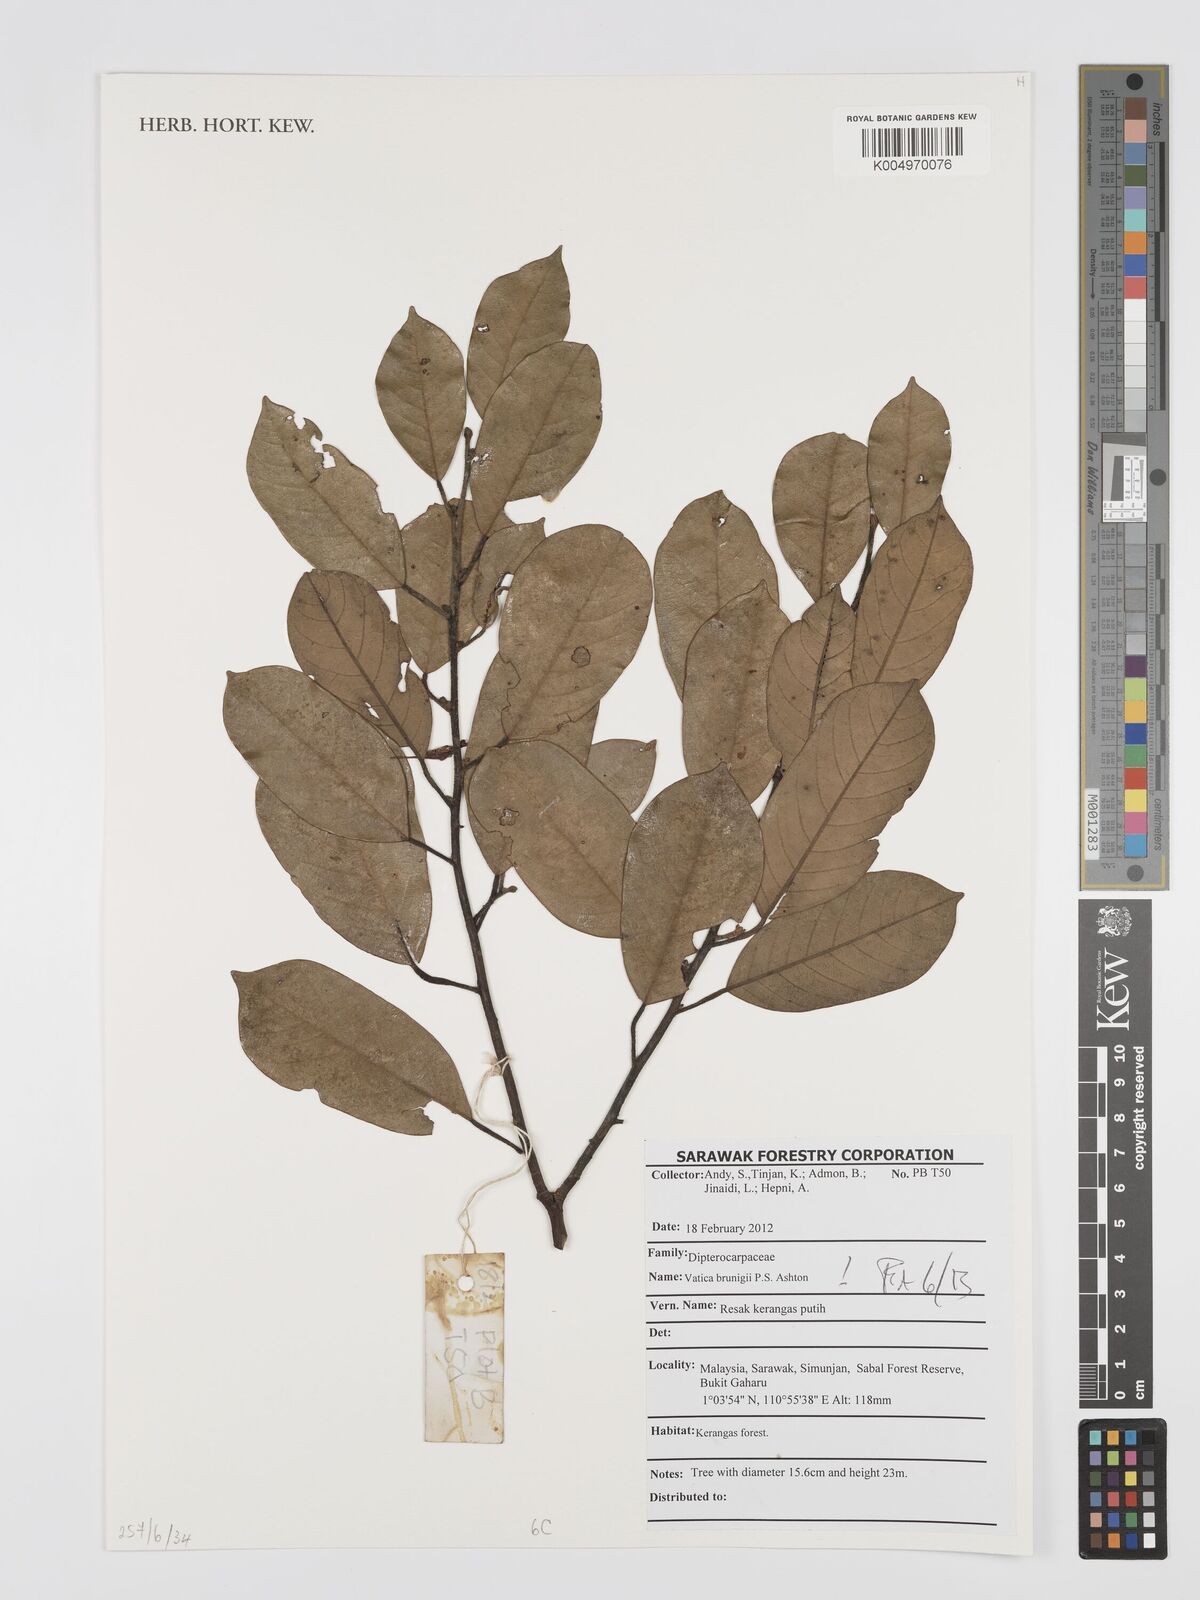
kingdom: Plantae
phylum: Tracheophyta
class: Magnoliopsida
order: Malvales
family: Dipterocarpaceae
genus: Vatica
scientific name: Vatica brunigii
